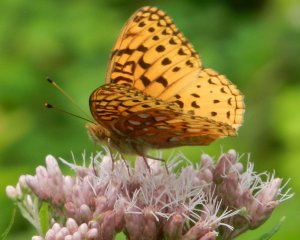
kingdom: Animalia
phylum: Arthropoda
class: Insecta
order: Lepidoptera
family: Nymphalidae
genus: Clossiana
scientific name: Clossiana toddi
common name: Meadow Fritillary
